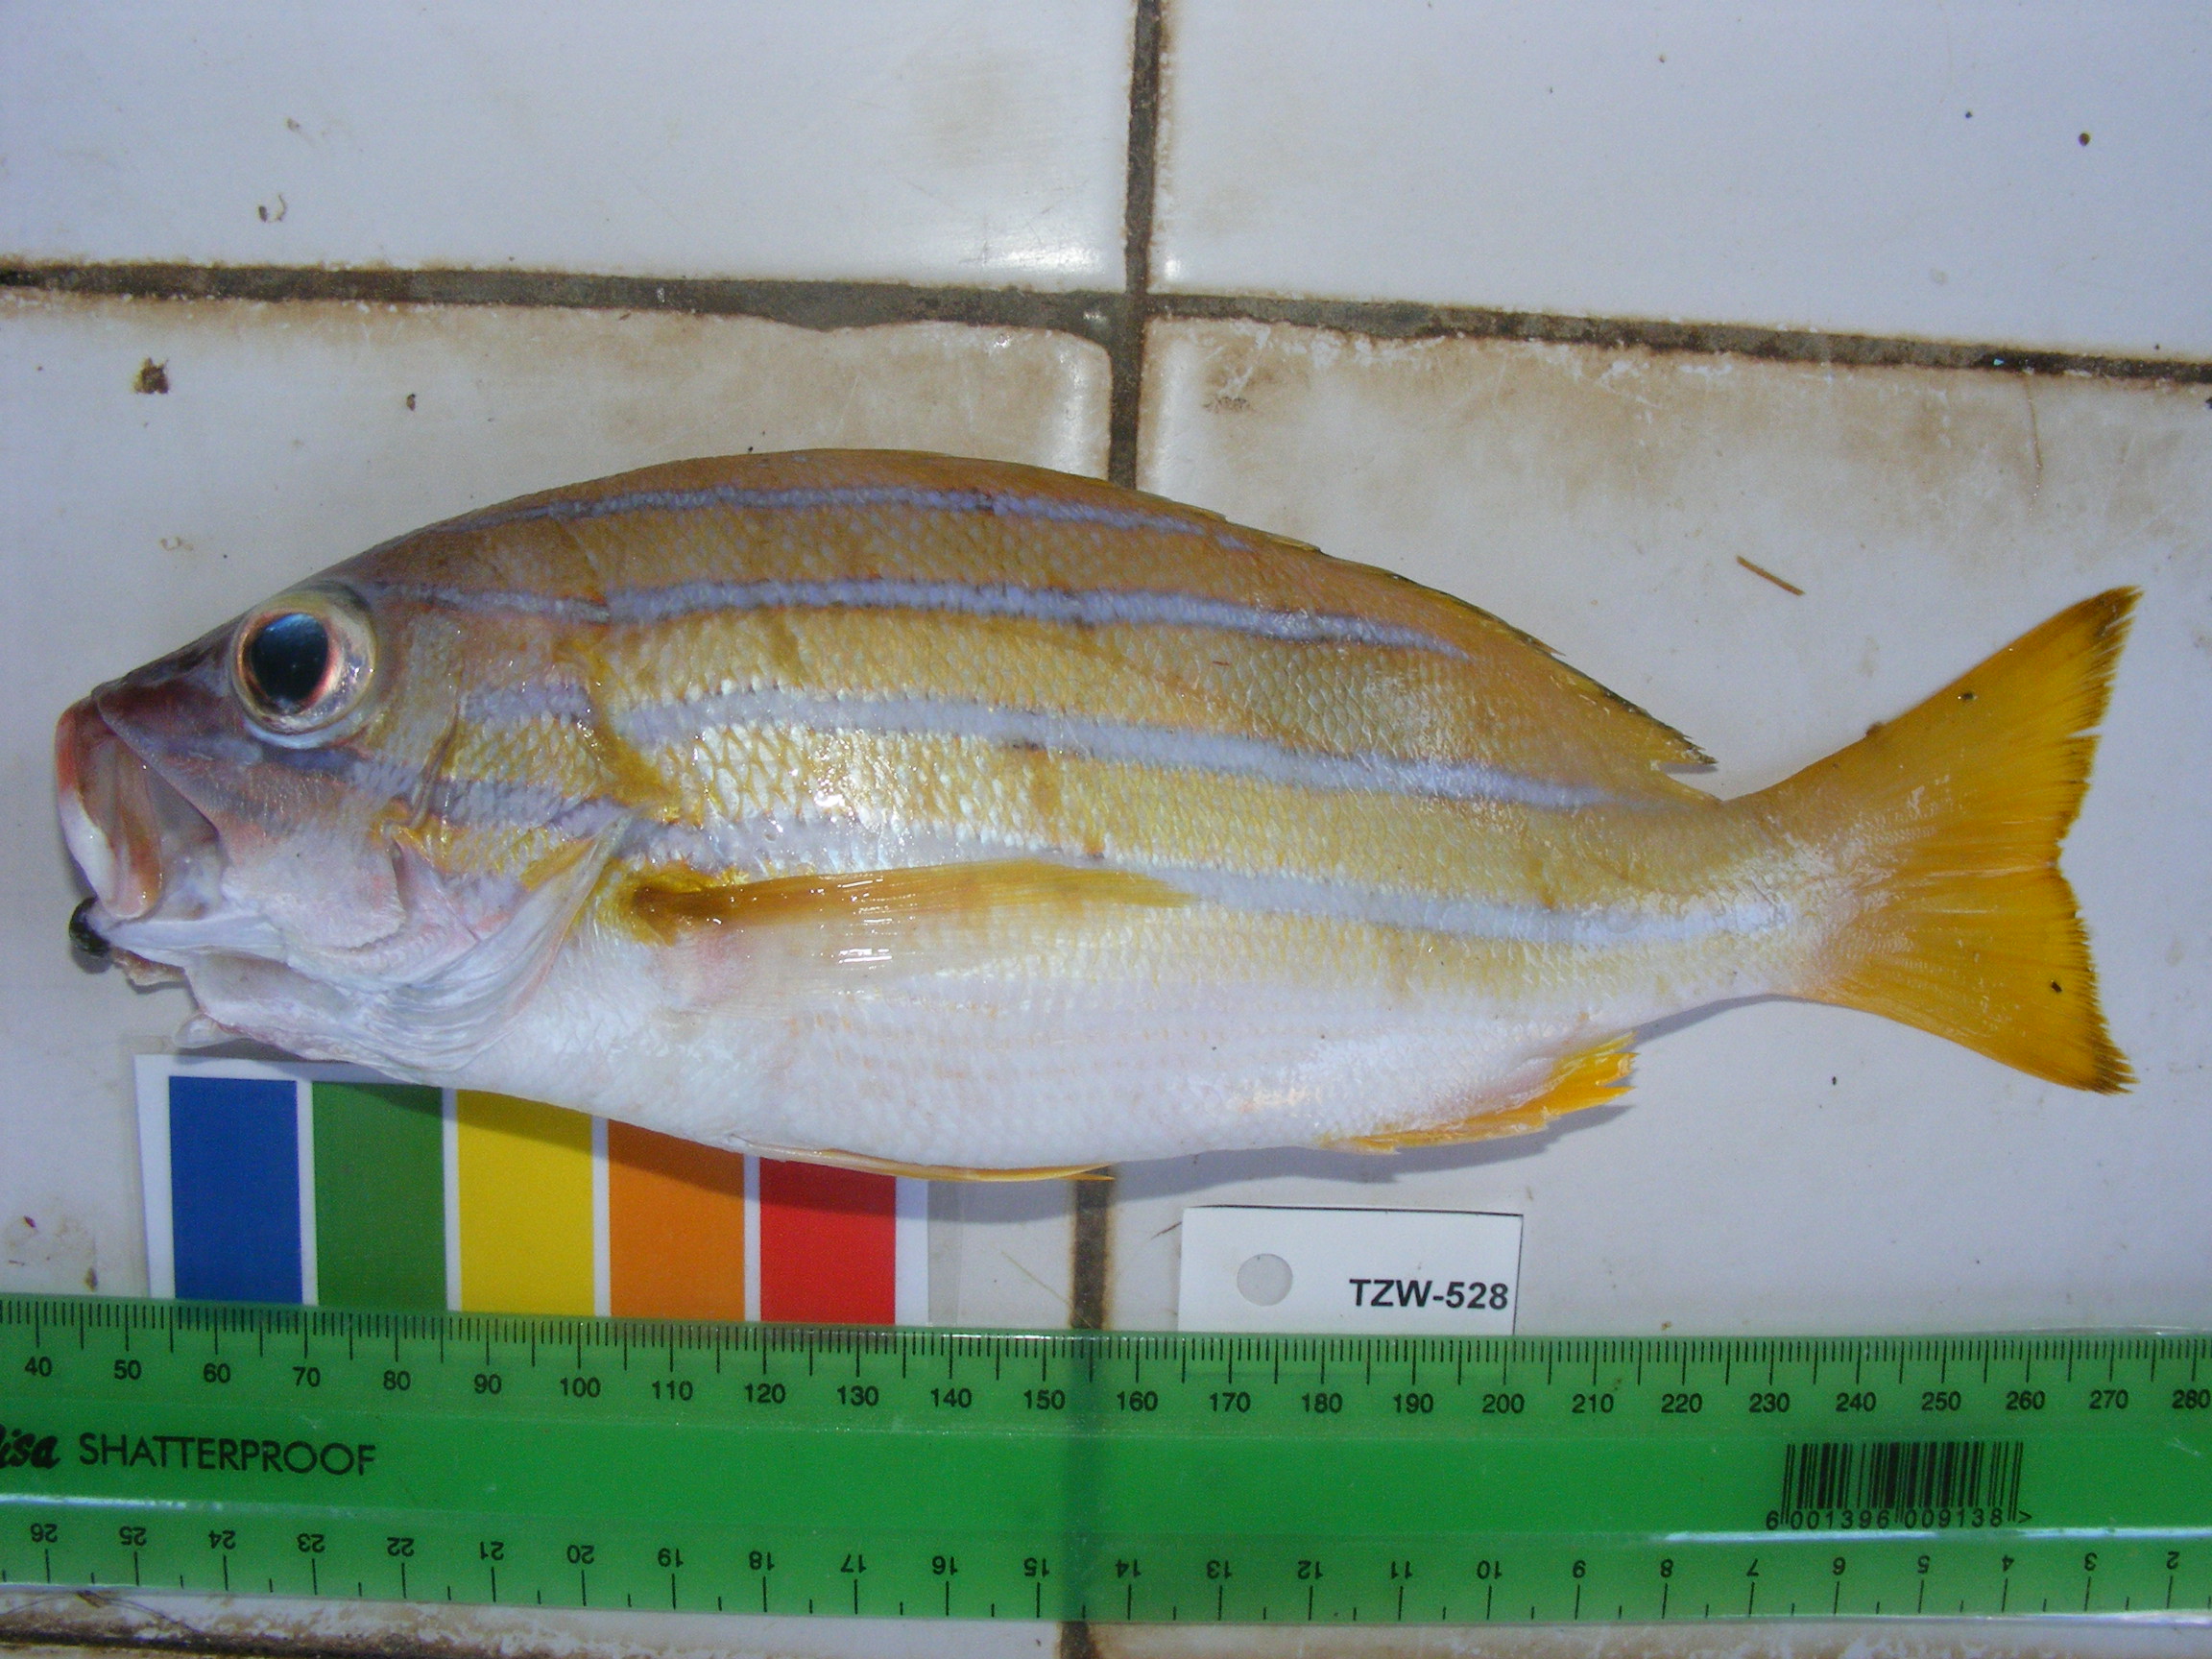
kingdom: Animalia
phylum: Chordata
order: Perciformes
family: Lutjanidae
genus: Lutjanus
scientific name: Lutjanus kasmira
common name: Common bluestripe snapper
